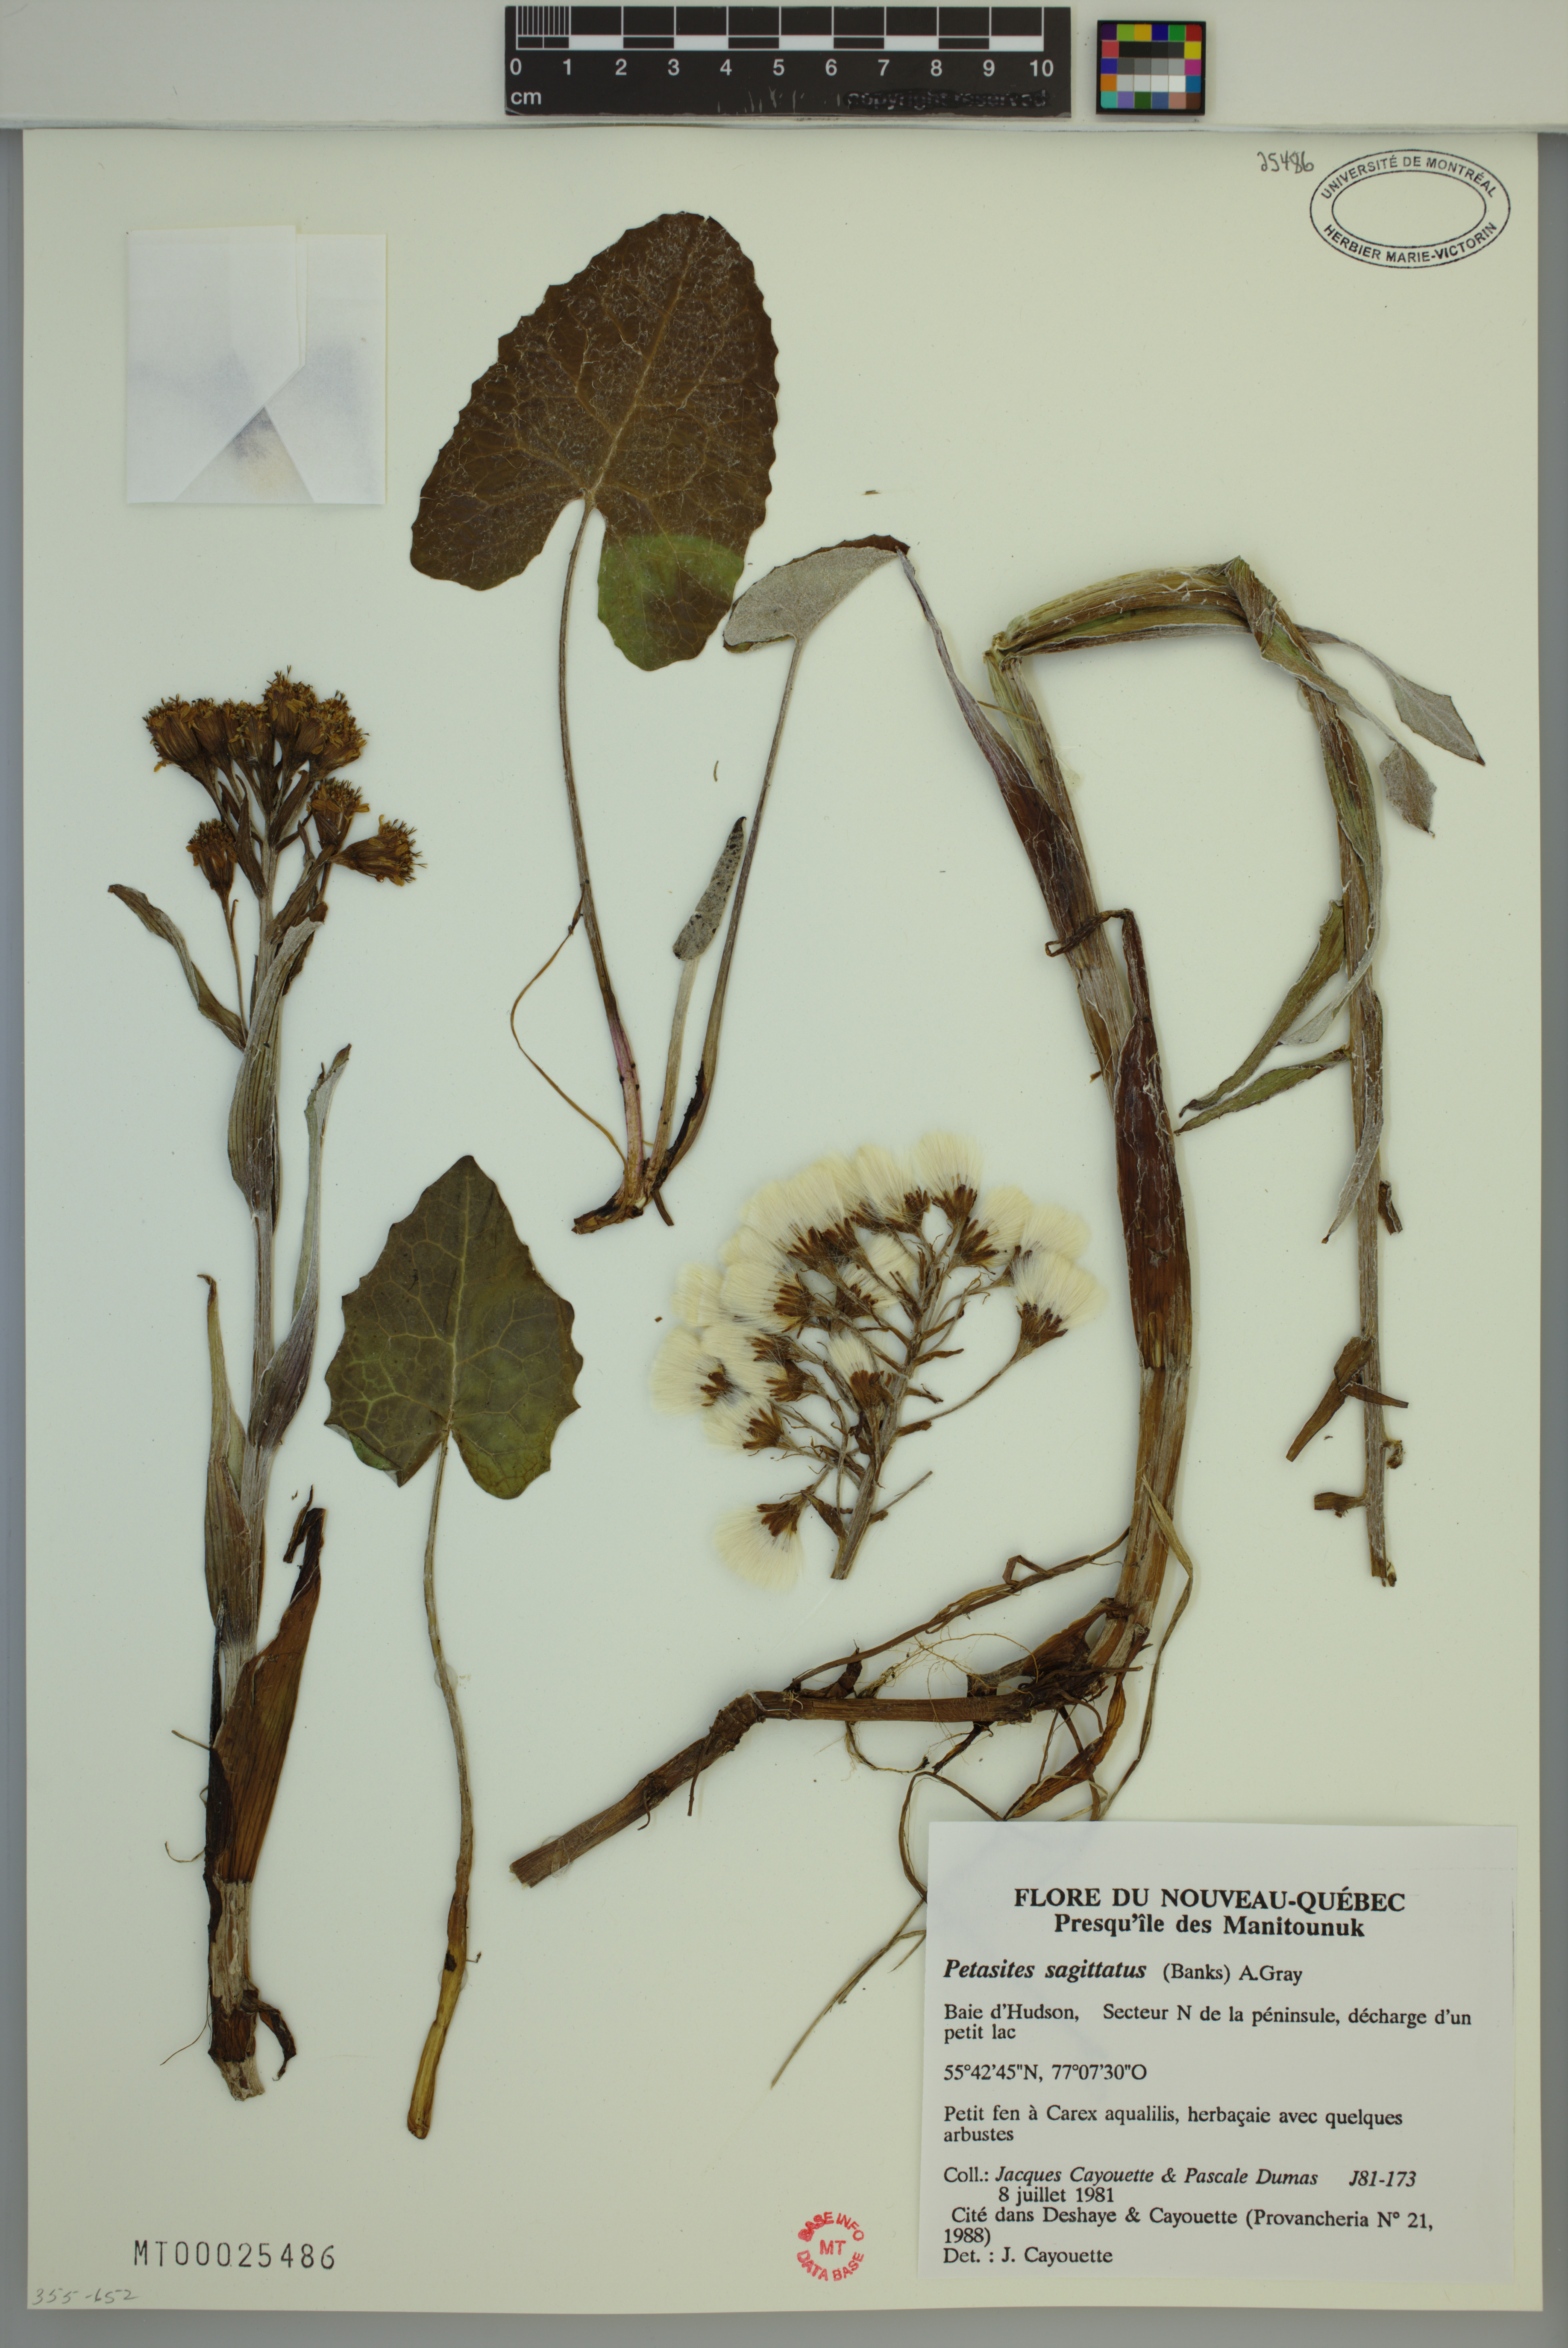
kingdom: Plantae
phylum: Tracheophyta
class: Magnoliopsida
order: Asterales
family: Asteraceae
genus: Petasites
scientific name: Petasites frigidus
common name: Arctic butterbur
